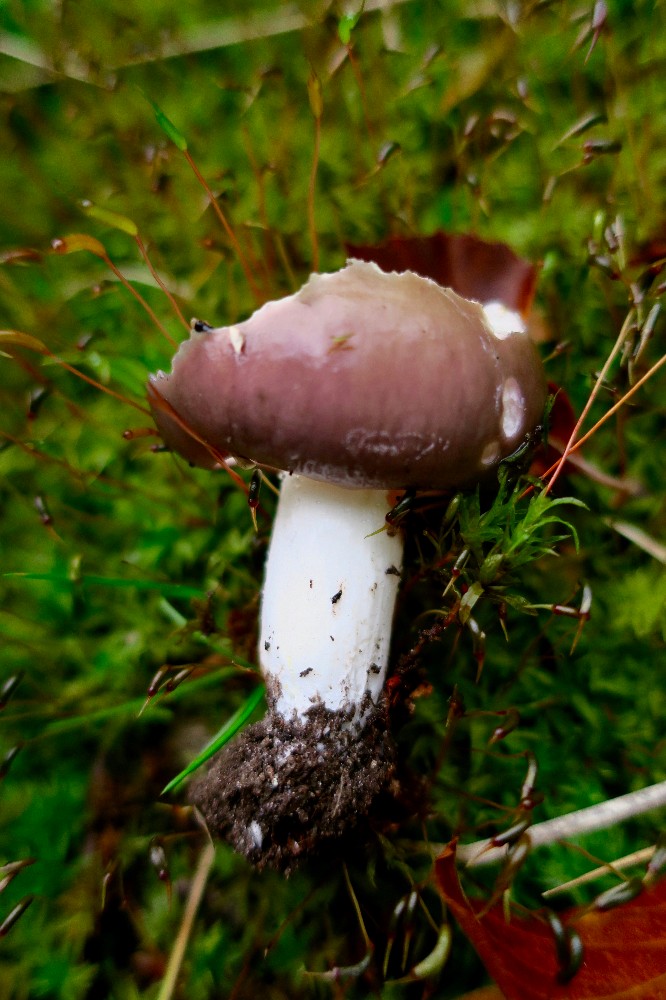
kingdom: Fungi
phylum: Basidiomycota
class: Agaricomycetes
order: Russulales
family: Russulaceae
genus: Russula
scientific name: Russula cyanoxantha
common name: broget skørhat
